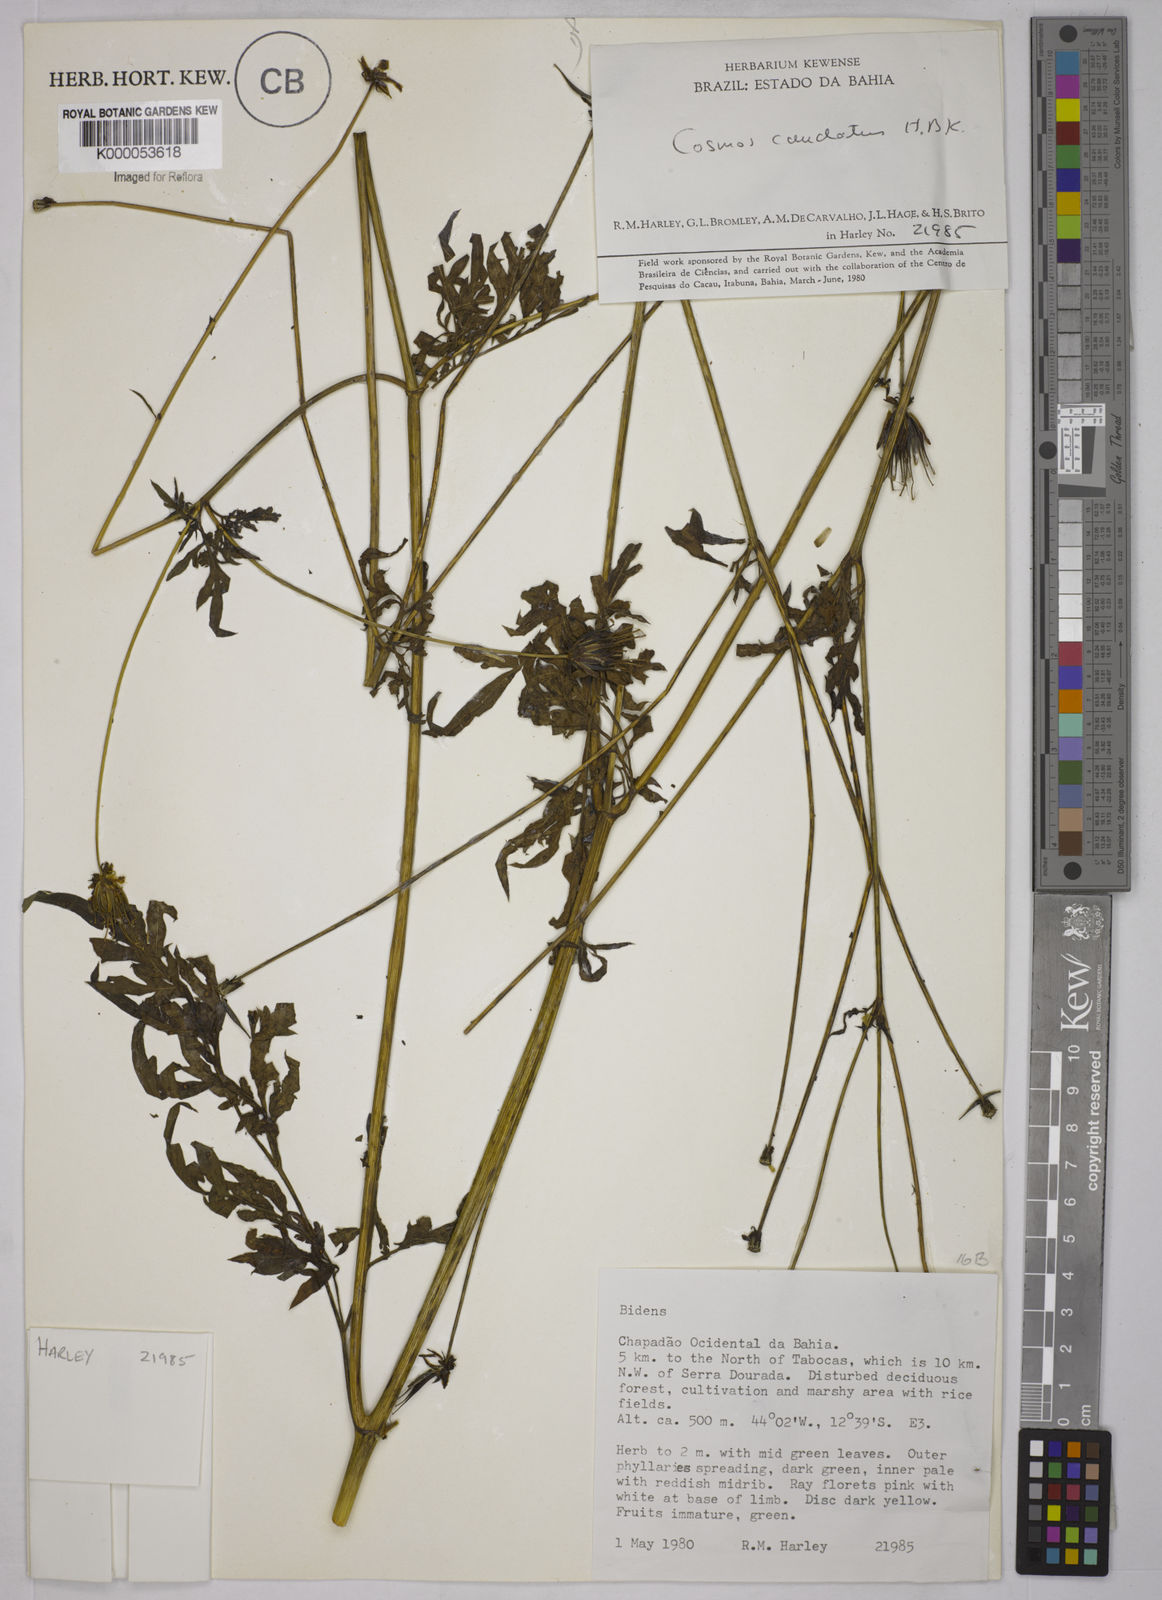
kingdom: Plantae
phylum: Tracheophyta
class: Magnoliopsida
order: Asterales
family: Asteraceae
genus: Cosmos
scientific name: Cosmos caudatus
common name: Wild cosmos
